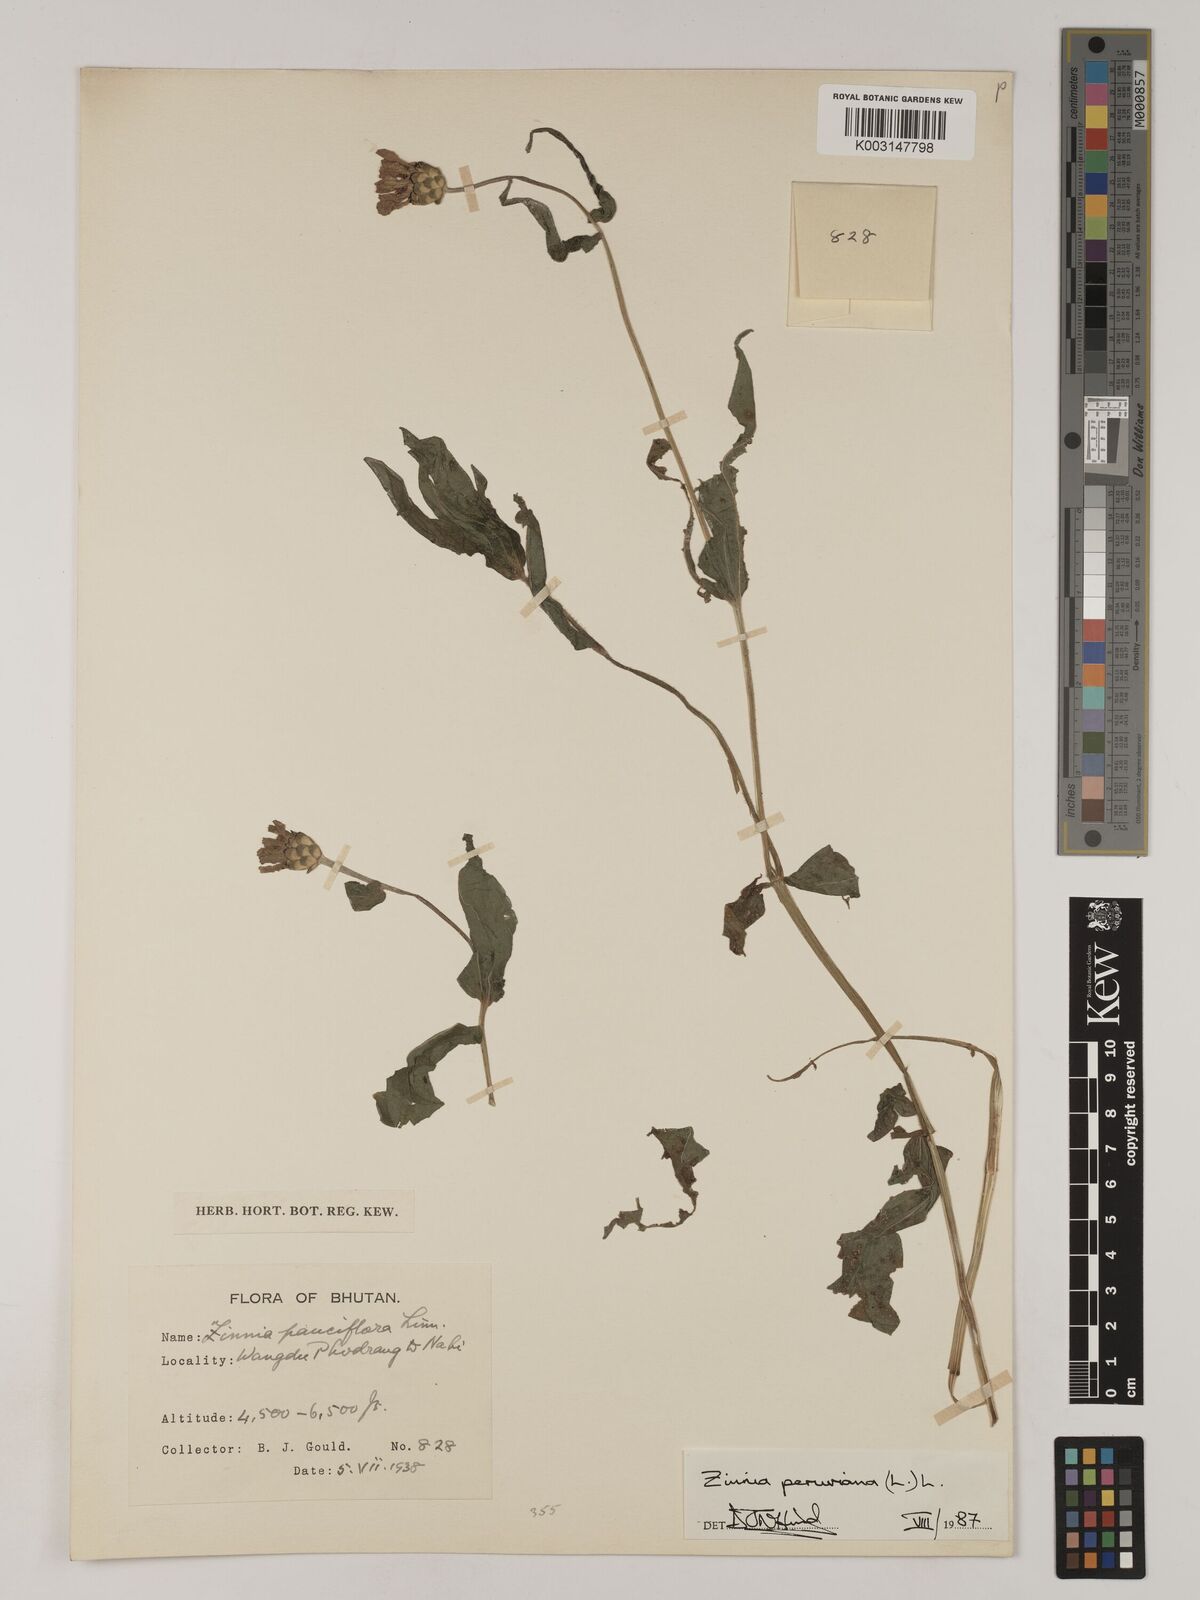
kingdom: Plantae
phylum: Tracheophyta
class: Magnoliopsida
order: Asterales
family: Asteraceae
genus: Zinnia
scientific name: Zinnia peruviana
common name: Peruvian zinnia
